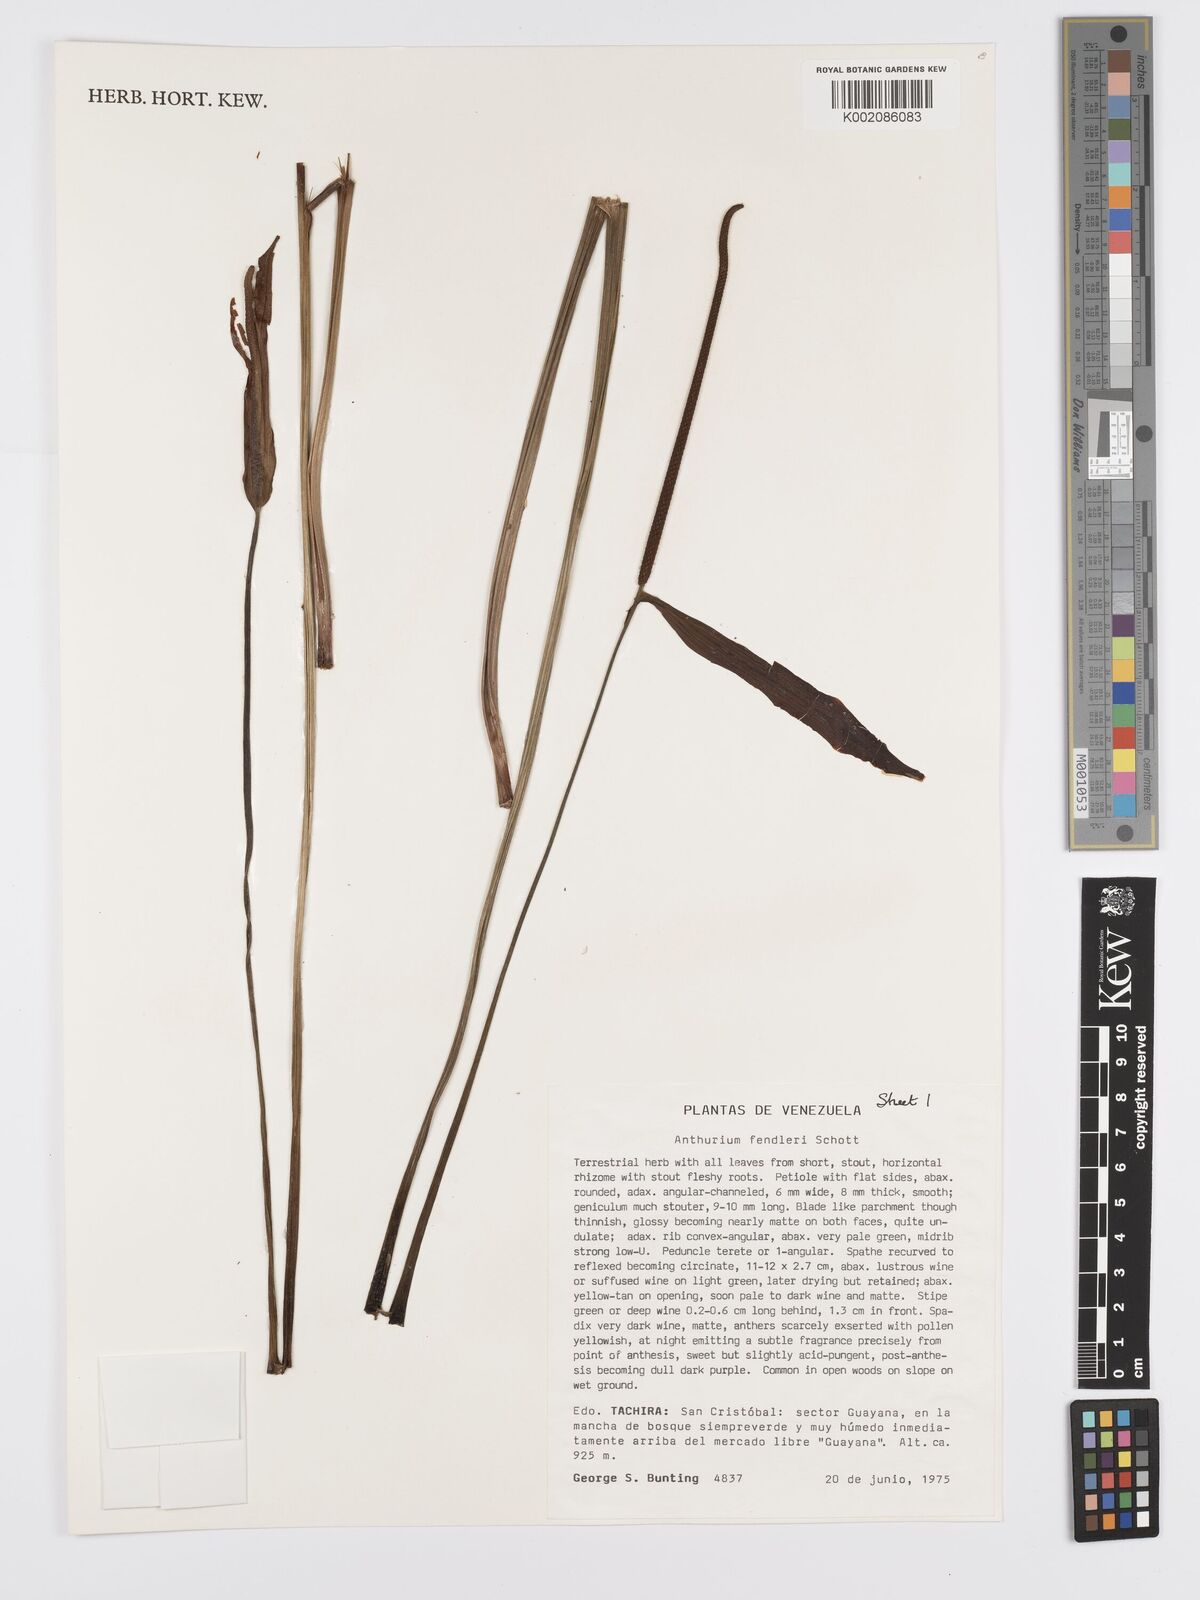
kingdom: Plantae
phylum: Tracheophyta
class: Liliopsida
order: Alismatales
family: Araceae
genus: Anthurium
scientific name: Anthurium fendleri
